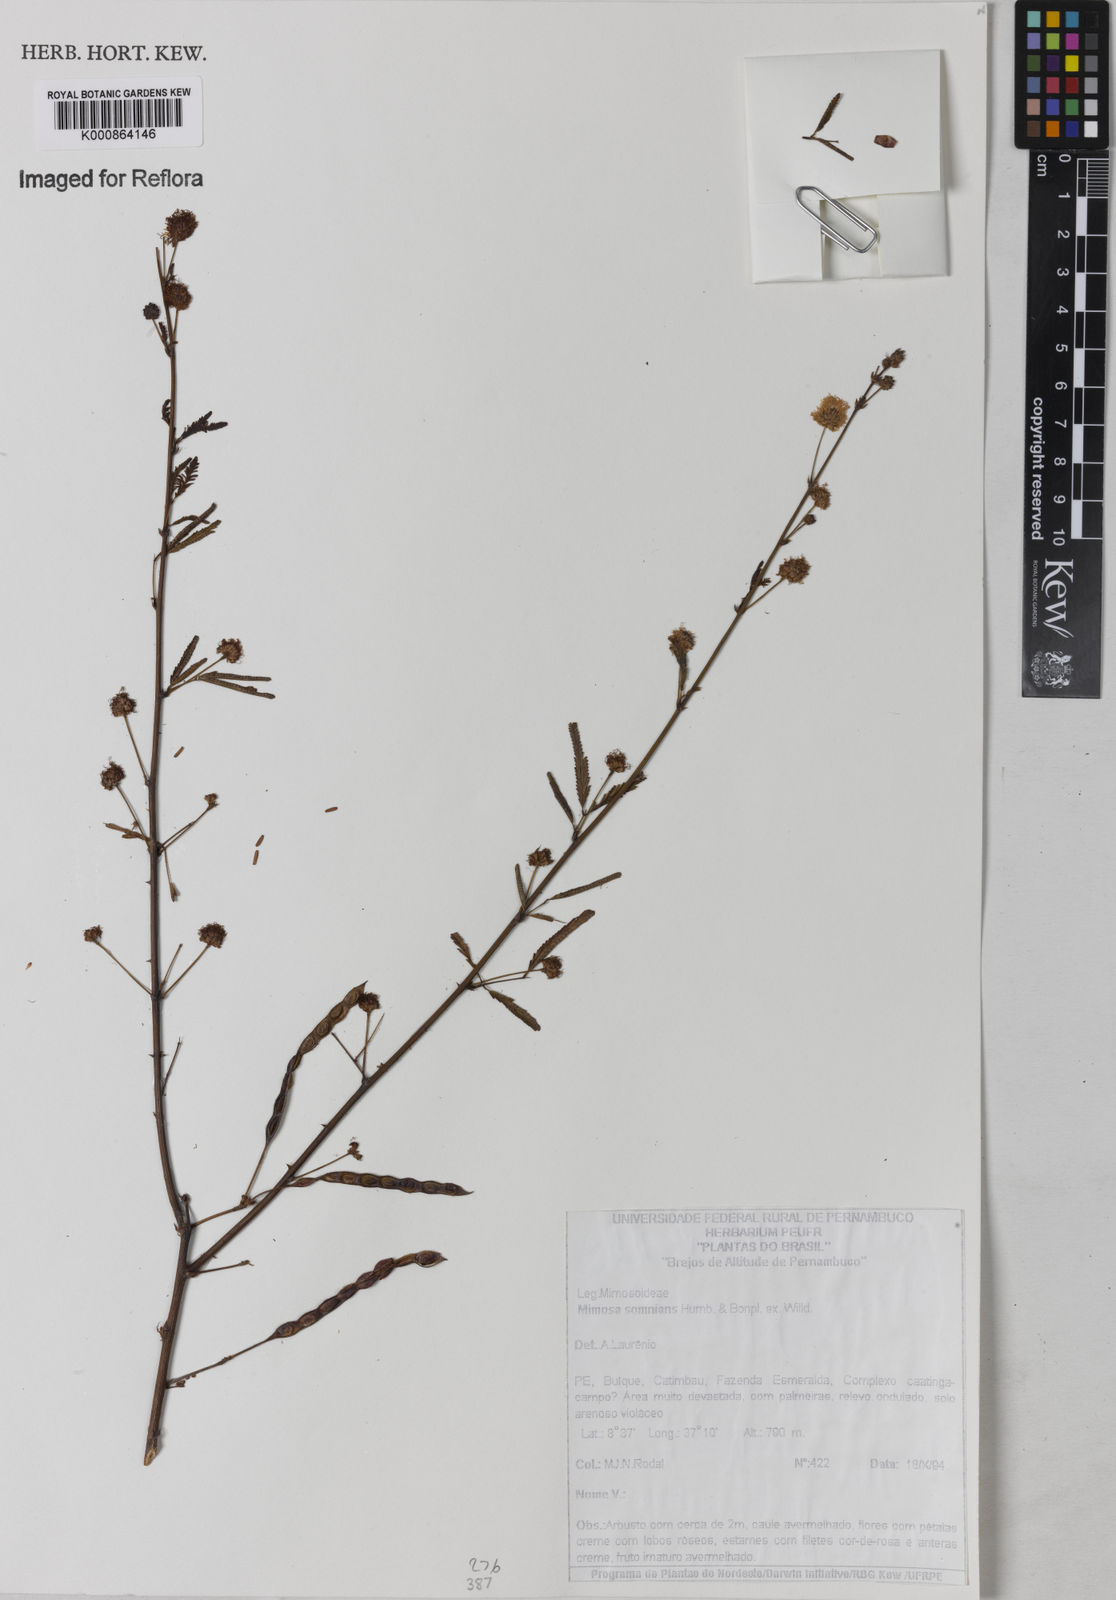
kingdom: Plantae
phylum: Tracheophyta
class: Magnoliopsida
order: Fabales
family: Fabaceae
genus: Mimosa
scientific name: Mimosa somnians
